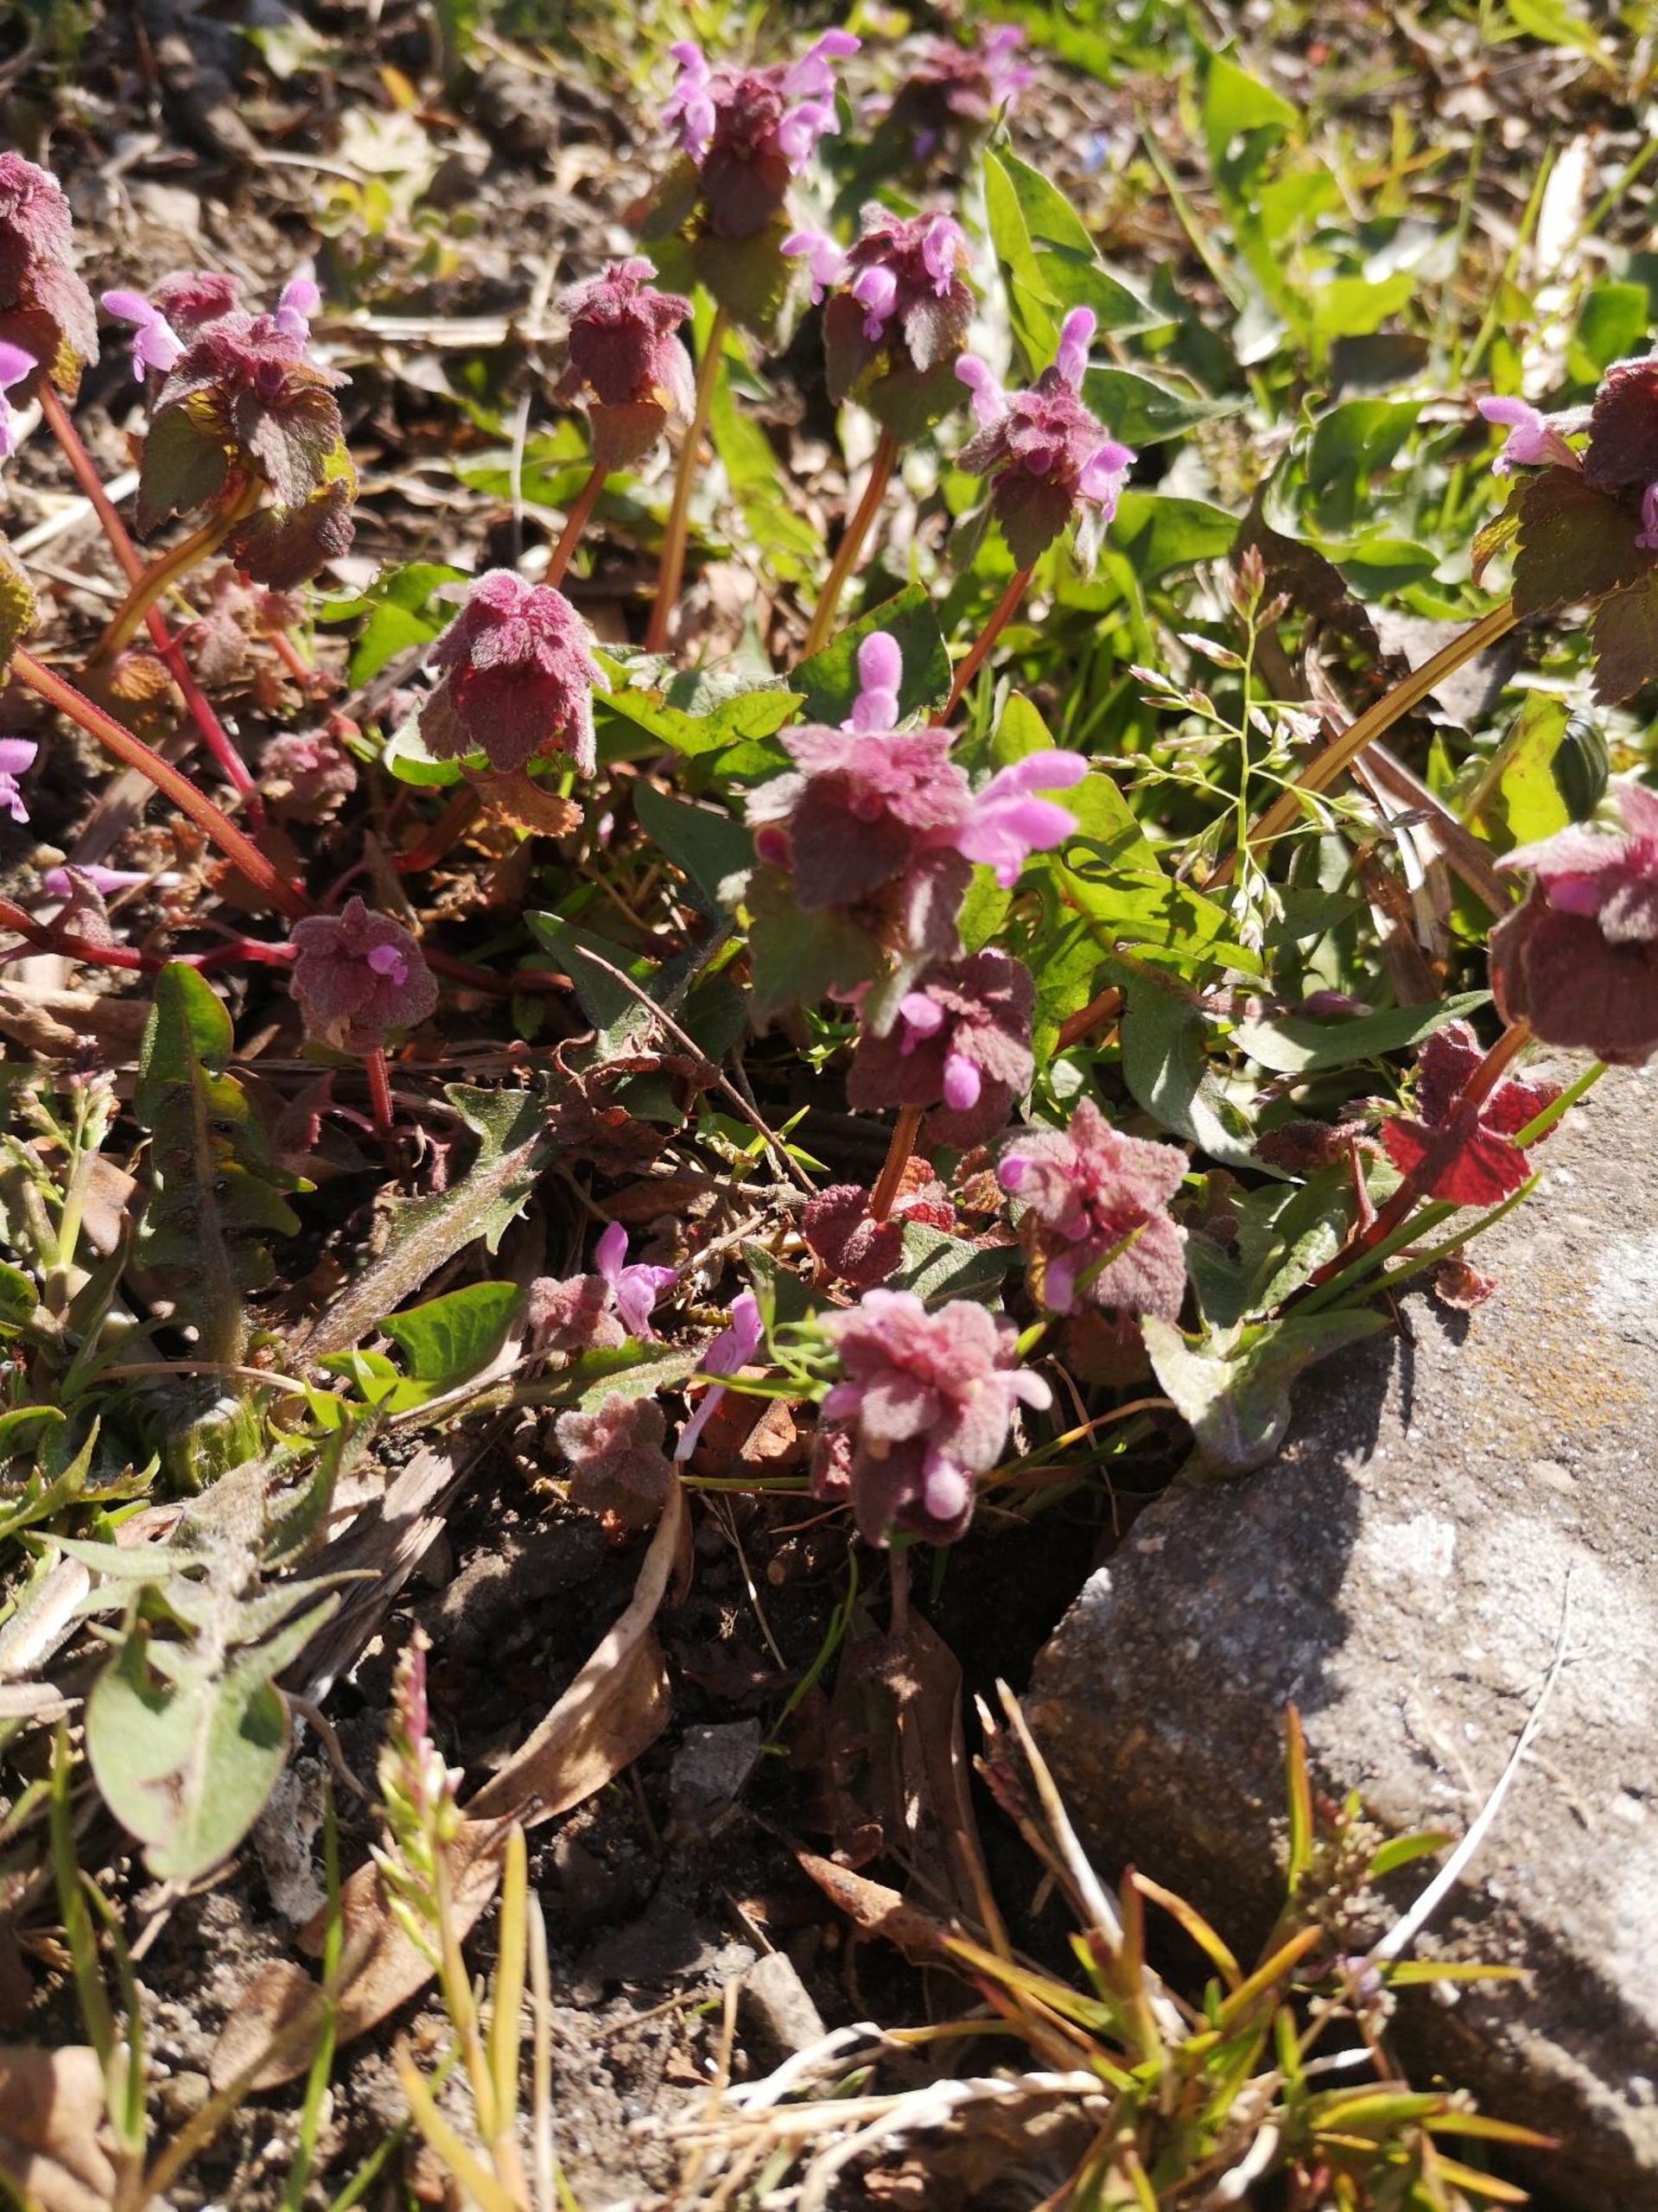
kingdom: Plantae
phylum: Tracheophyta
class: Magnoliopsida
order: Lamiales
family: Lamiaceae
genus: Lamium
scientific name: Lamium purpureum
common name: Rød tvetand
